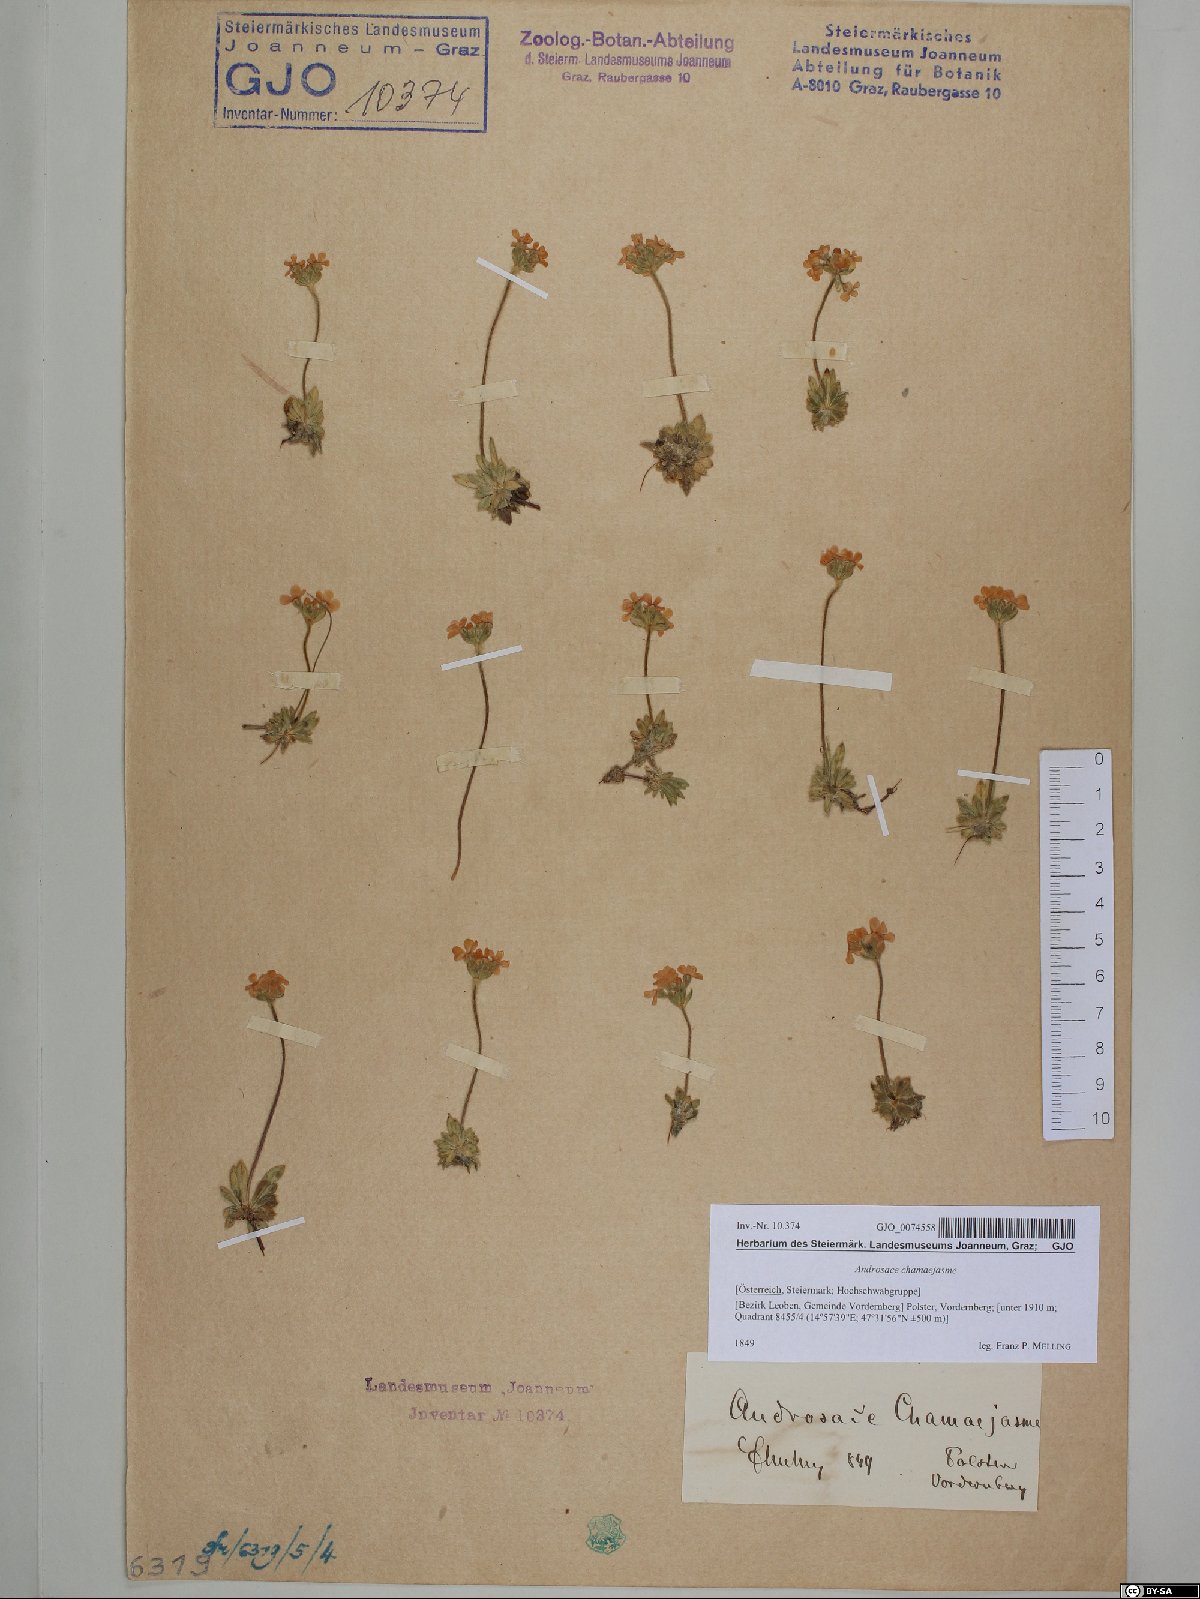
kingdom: Plantae
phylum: Tracheophyta
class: Magnoliopsida
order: Ericales
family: Primulaceae
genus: Androsace
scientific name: Androsace chamaejasme
